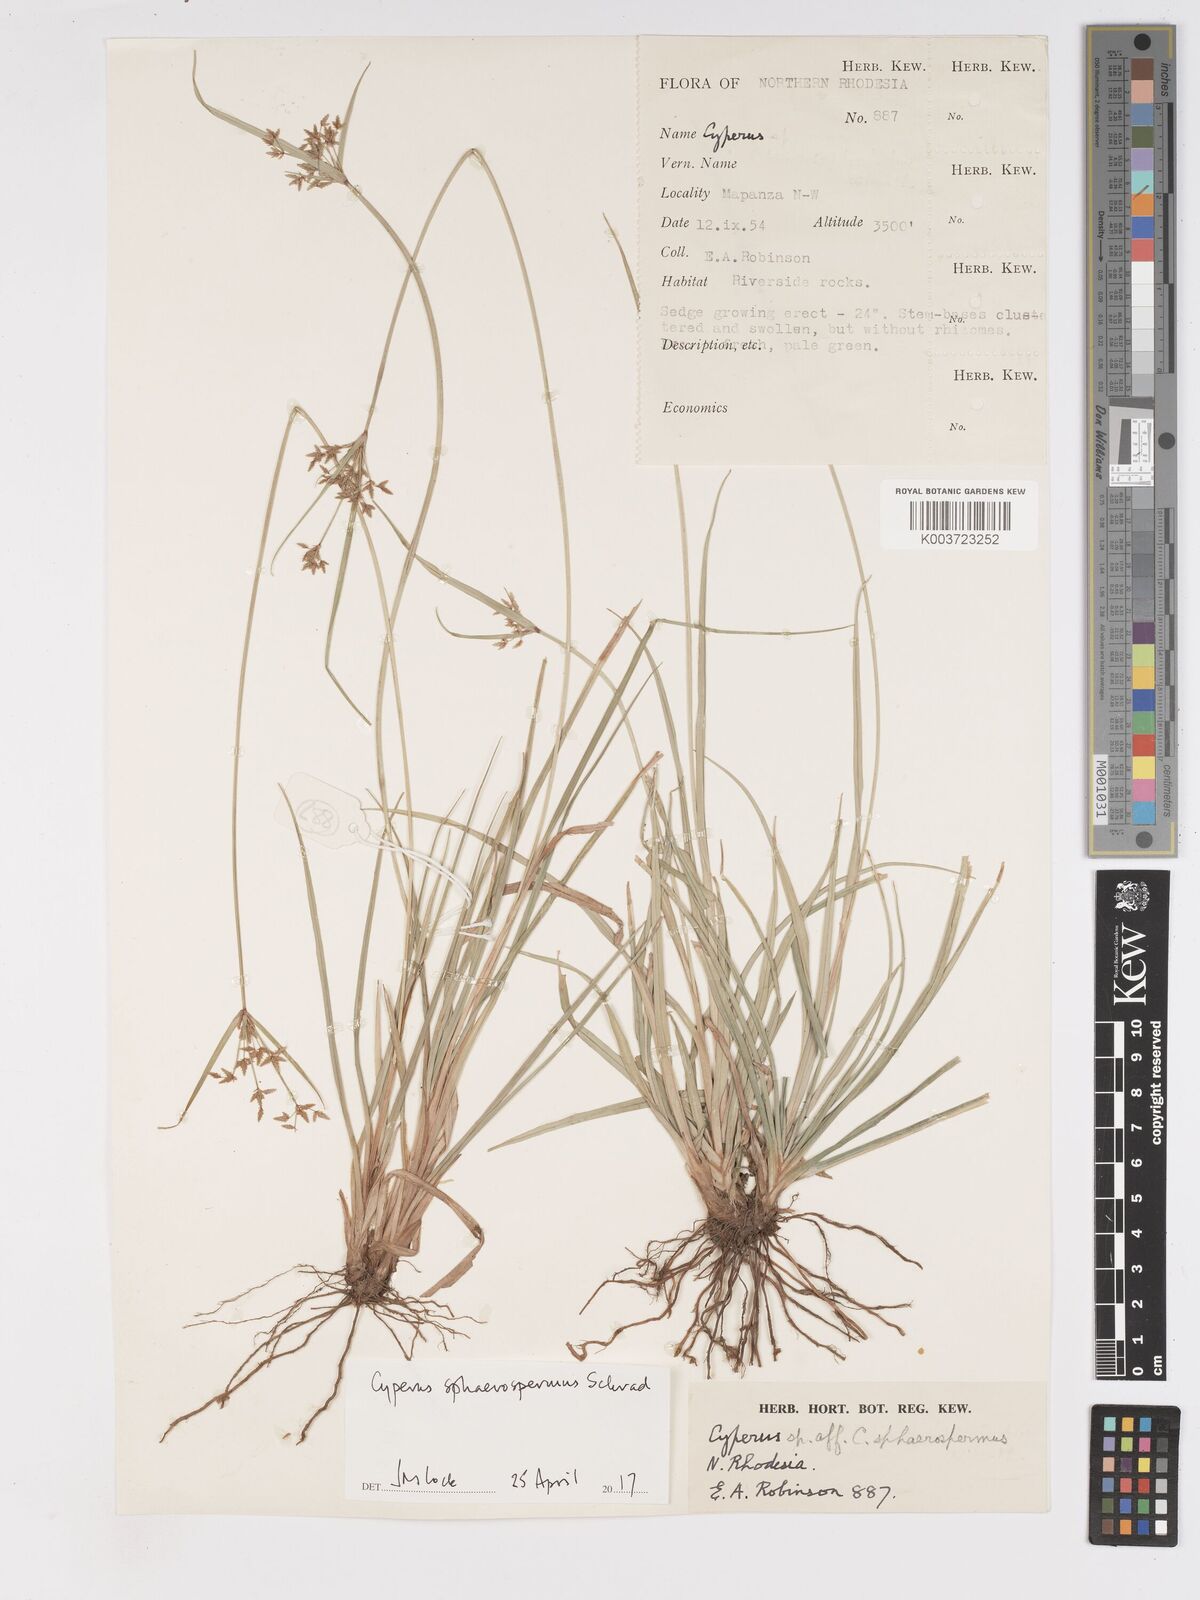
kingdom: Plantae
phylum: Tracheophyta
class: Liliopsida
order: Poales
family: Cyperaceae
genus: Cyperus
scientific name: Cyperus denudatus
